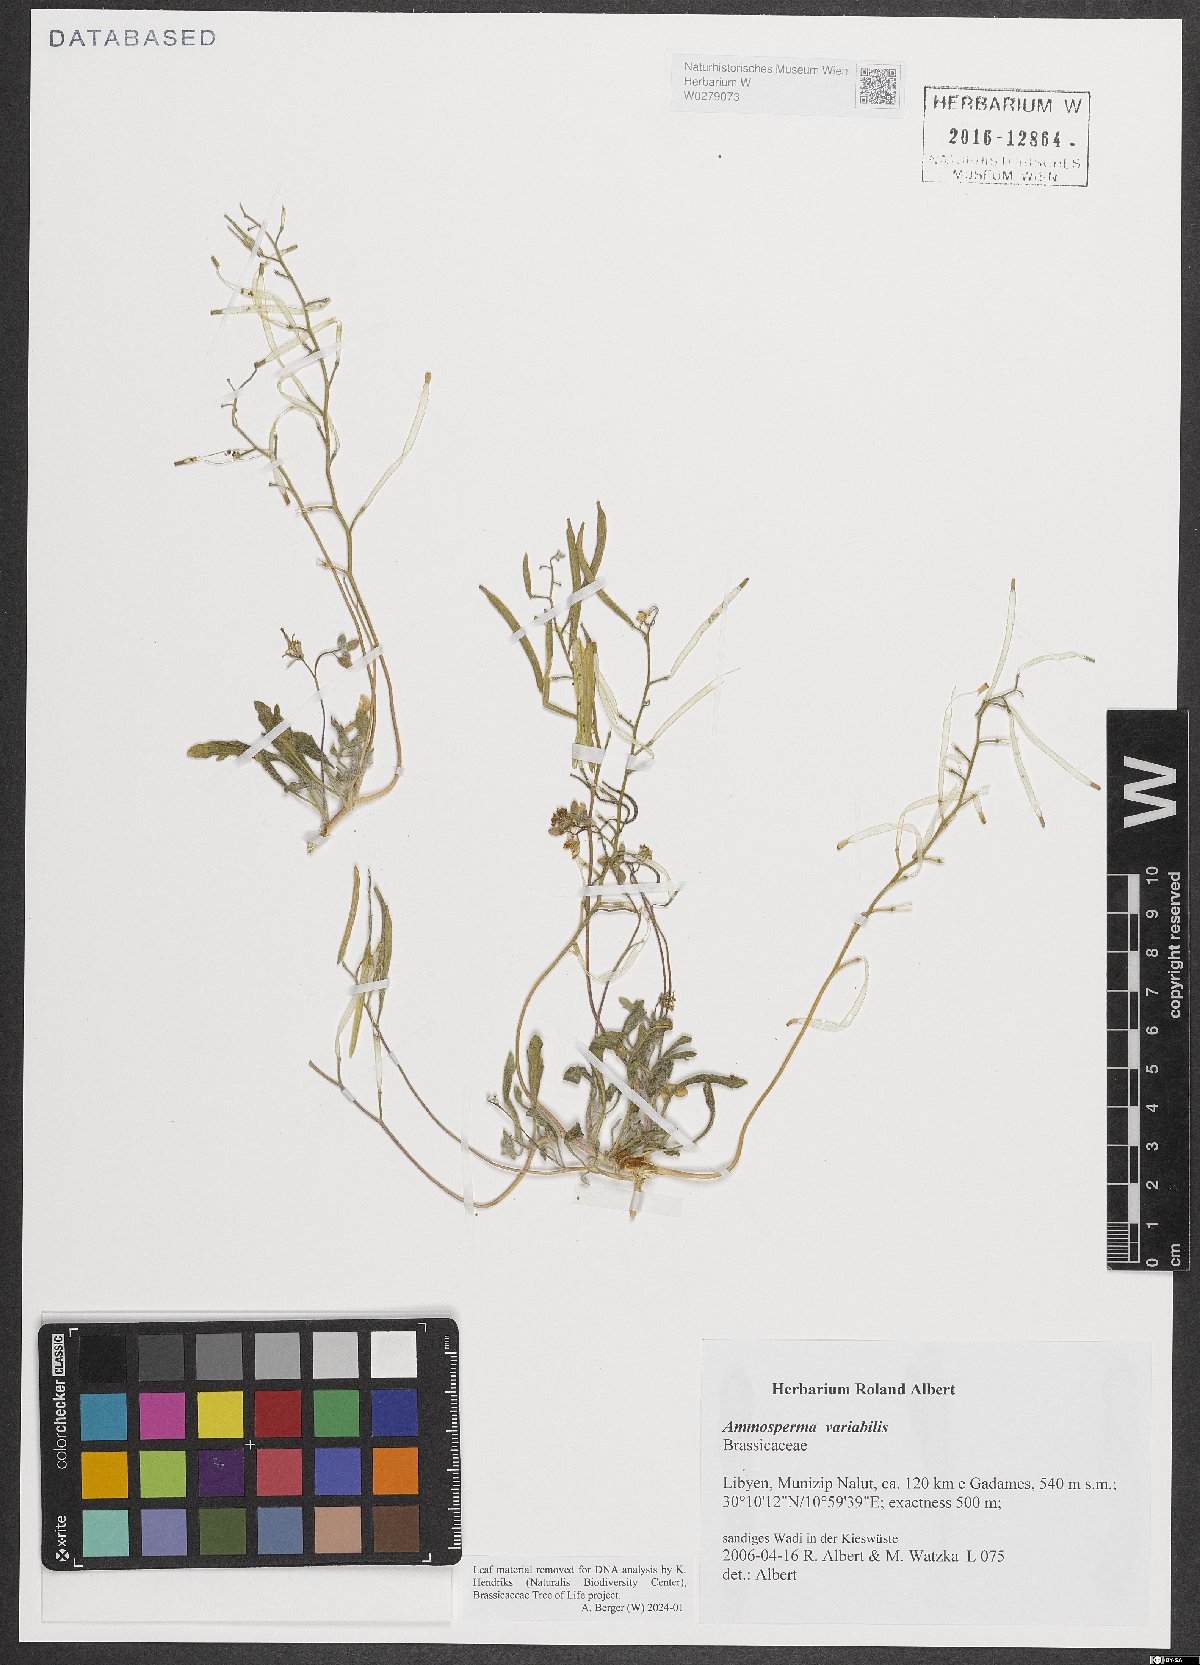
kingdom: Plantae
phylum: Tracheophyta
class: Magnoliopsida
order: Brassicales
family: Brassicaceae
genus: Ammosperma
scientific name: Ammosperma variabile
